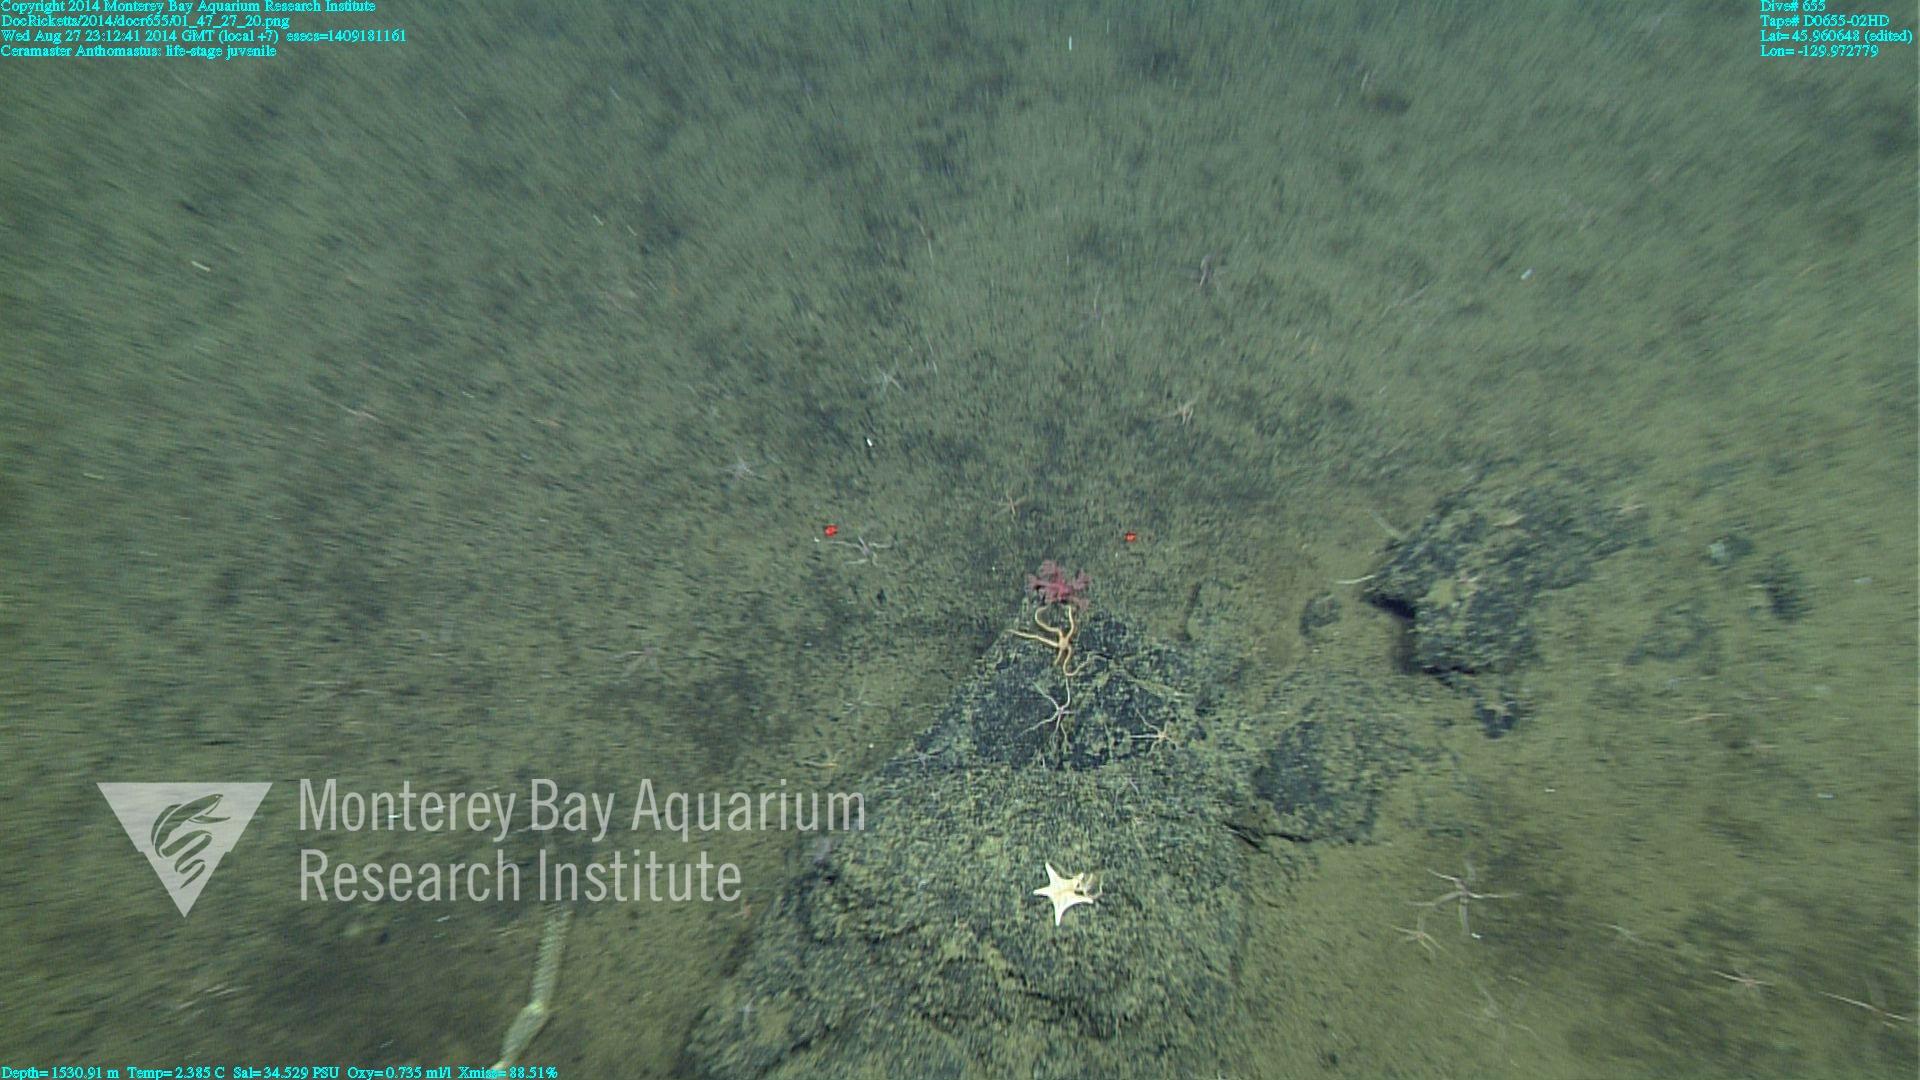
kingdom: Animalia
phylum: Cnidaria
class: Anthozoa
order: Scleralcyonacea
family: Coralliidae
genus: Heteropolypus
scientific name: Heteropolypus
